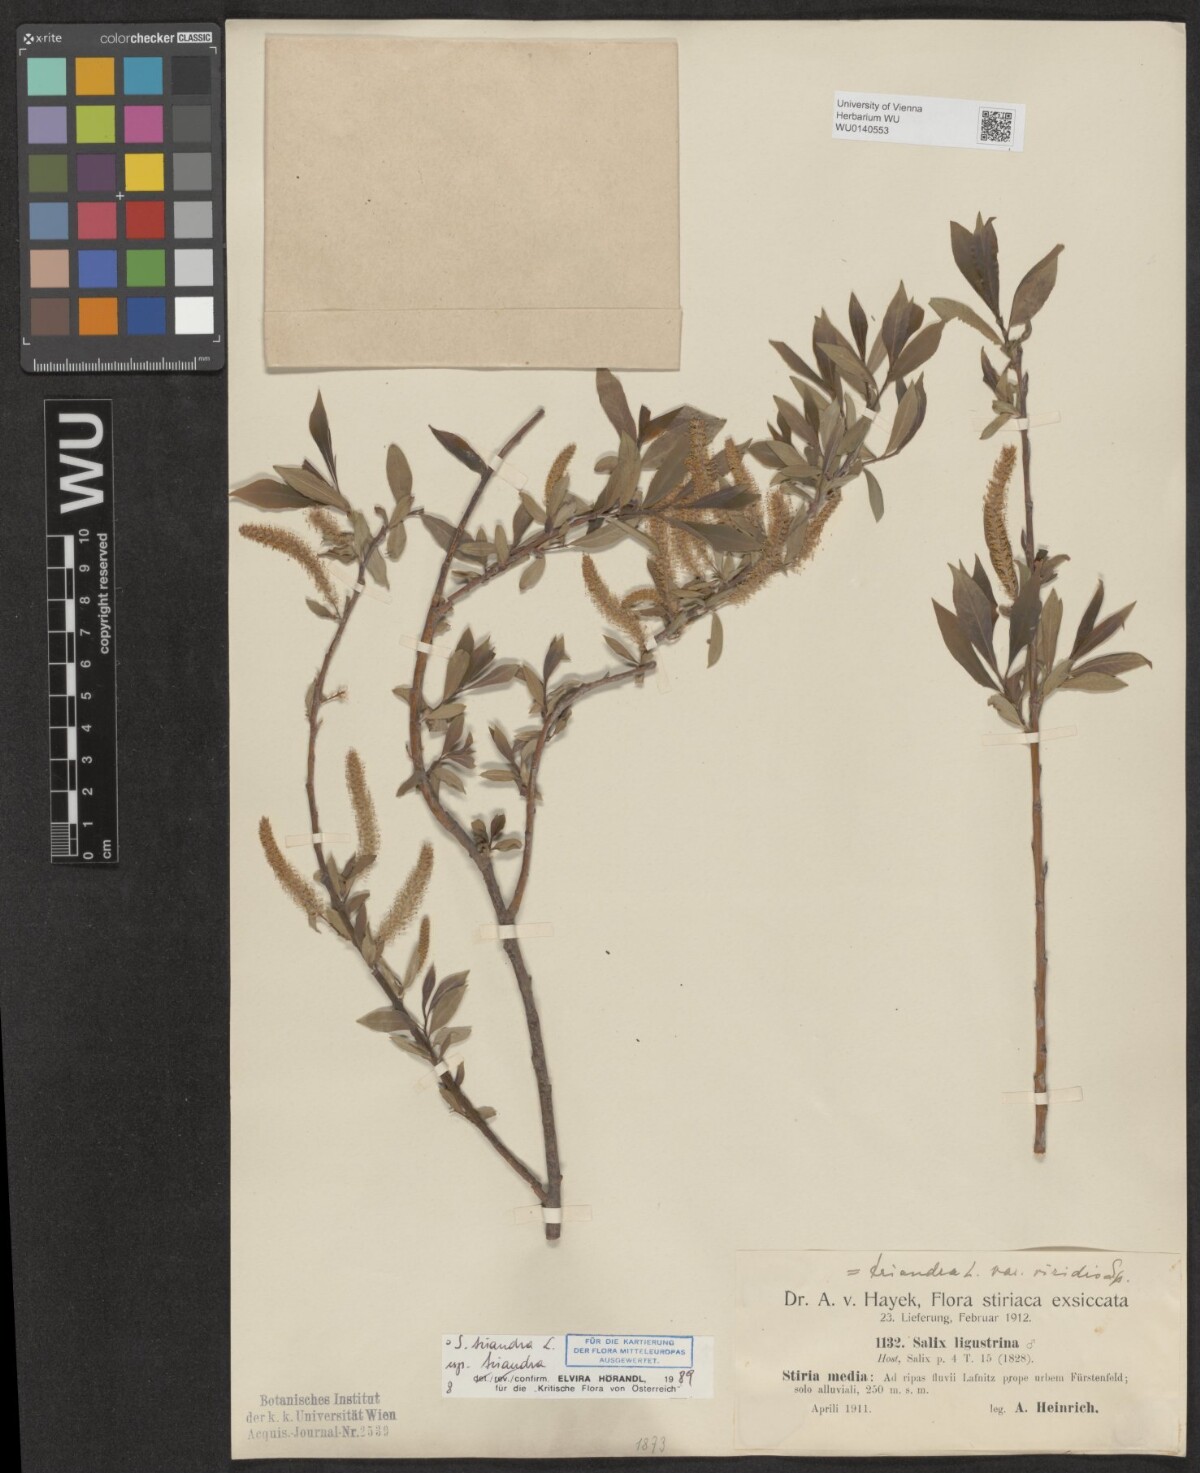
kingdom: Plantae
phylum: Tracheophyta
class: Magnoliopsida
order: Malpighiales
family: Salicaceae
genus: Salix
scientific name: Salix triandra
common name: Almond willow
